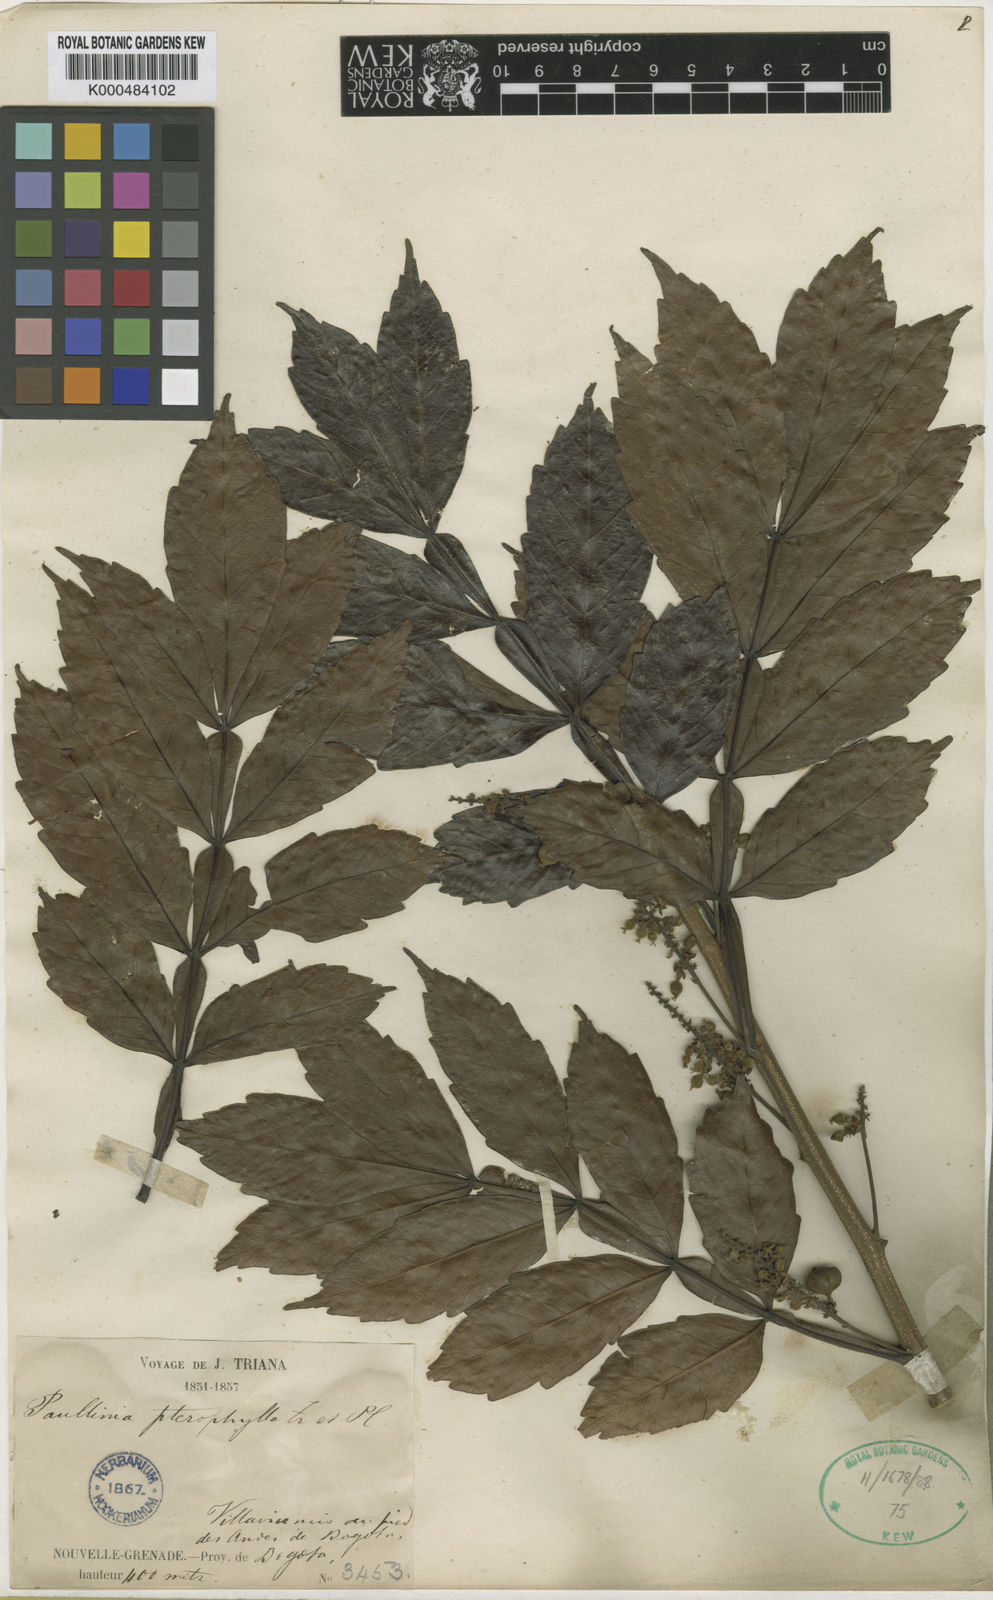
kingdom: Plantae
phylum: Tracheophyta
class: Magnoliopsida
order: Sapindales
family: Sapindaceae
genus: Paullinia
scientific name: Paullinia pterophylla
